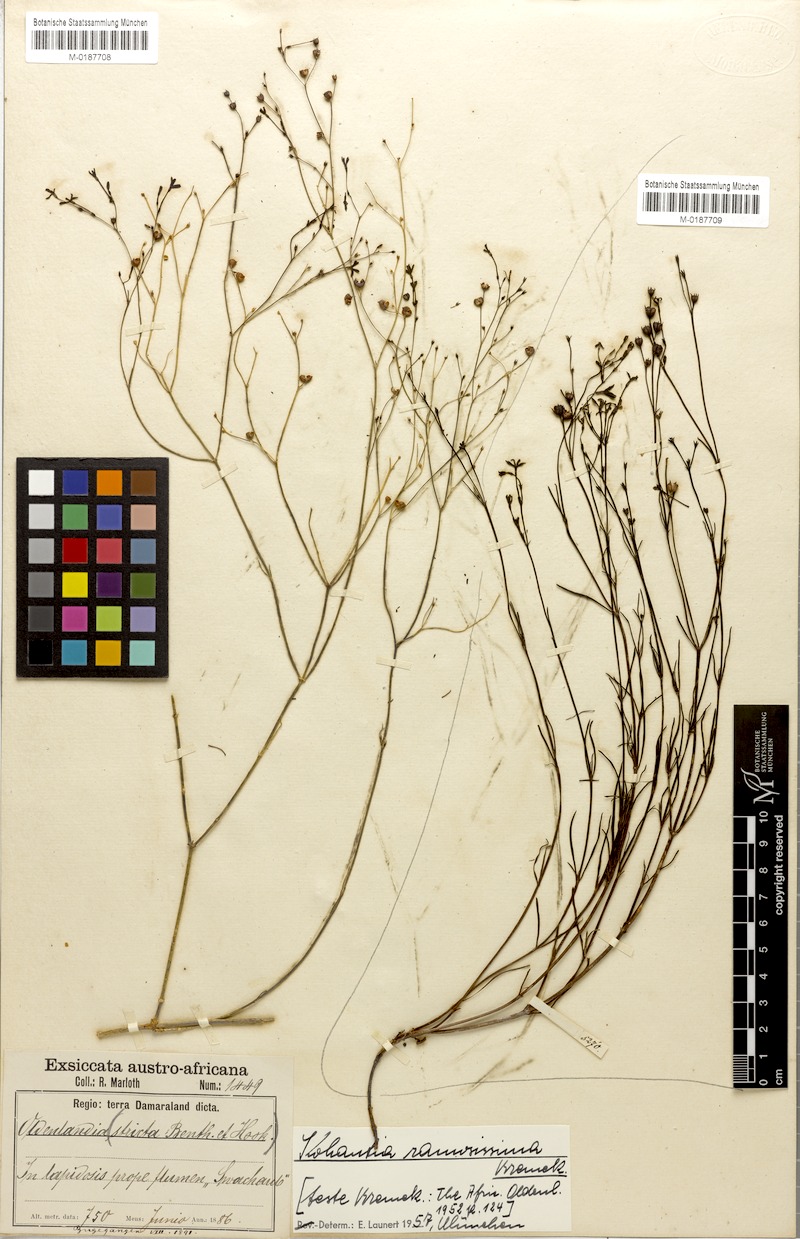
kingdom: Plantae
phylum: Tracheophyta
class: Magnoliopsida
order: Gentianales
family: Rubiaceae
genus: Kohautia
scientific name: Kohautia ramosissima
